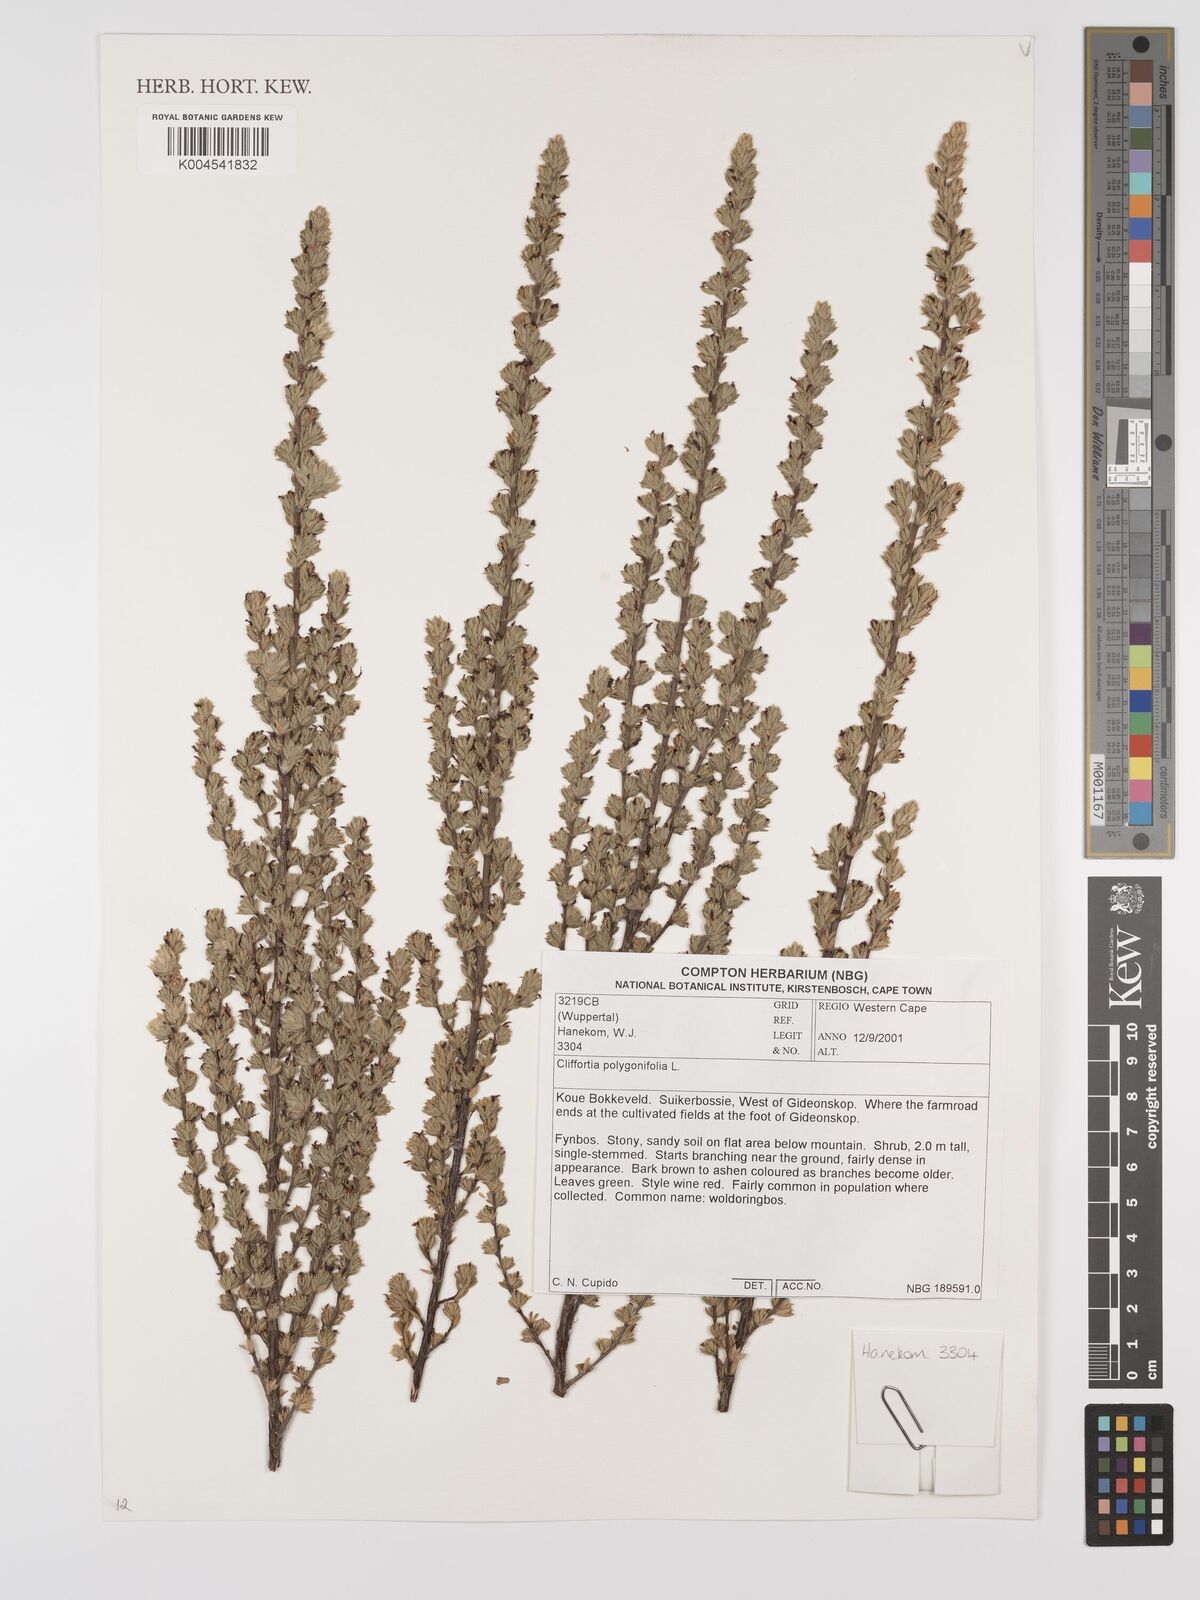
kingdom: Plantae
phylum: Tracheophyta
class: Magnoliopsida
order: Rosales
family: Rosaceae
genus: Cliffortia
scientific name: Cliffortia polygonifolia
